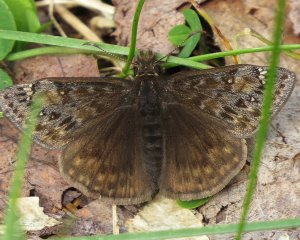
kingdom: Animalia
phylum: Arthropoda
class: Insecta
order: Lepidoptera
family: Hesperiidae
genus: Gesta
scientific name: Gesta
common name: Juvenal's Duskywing
